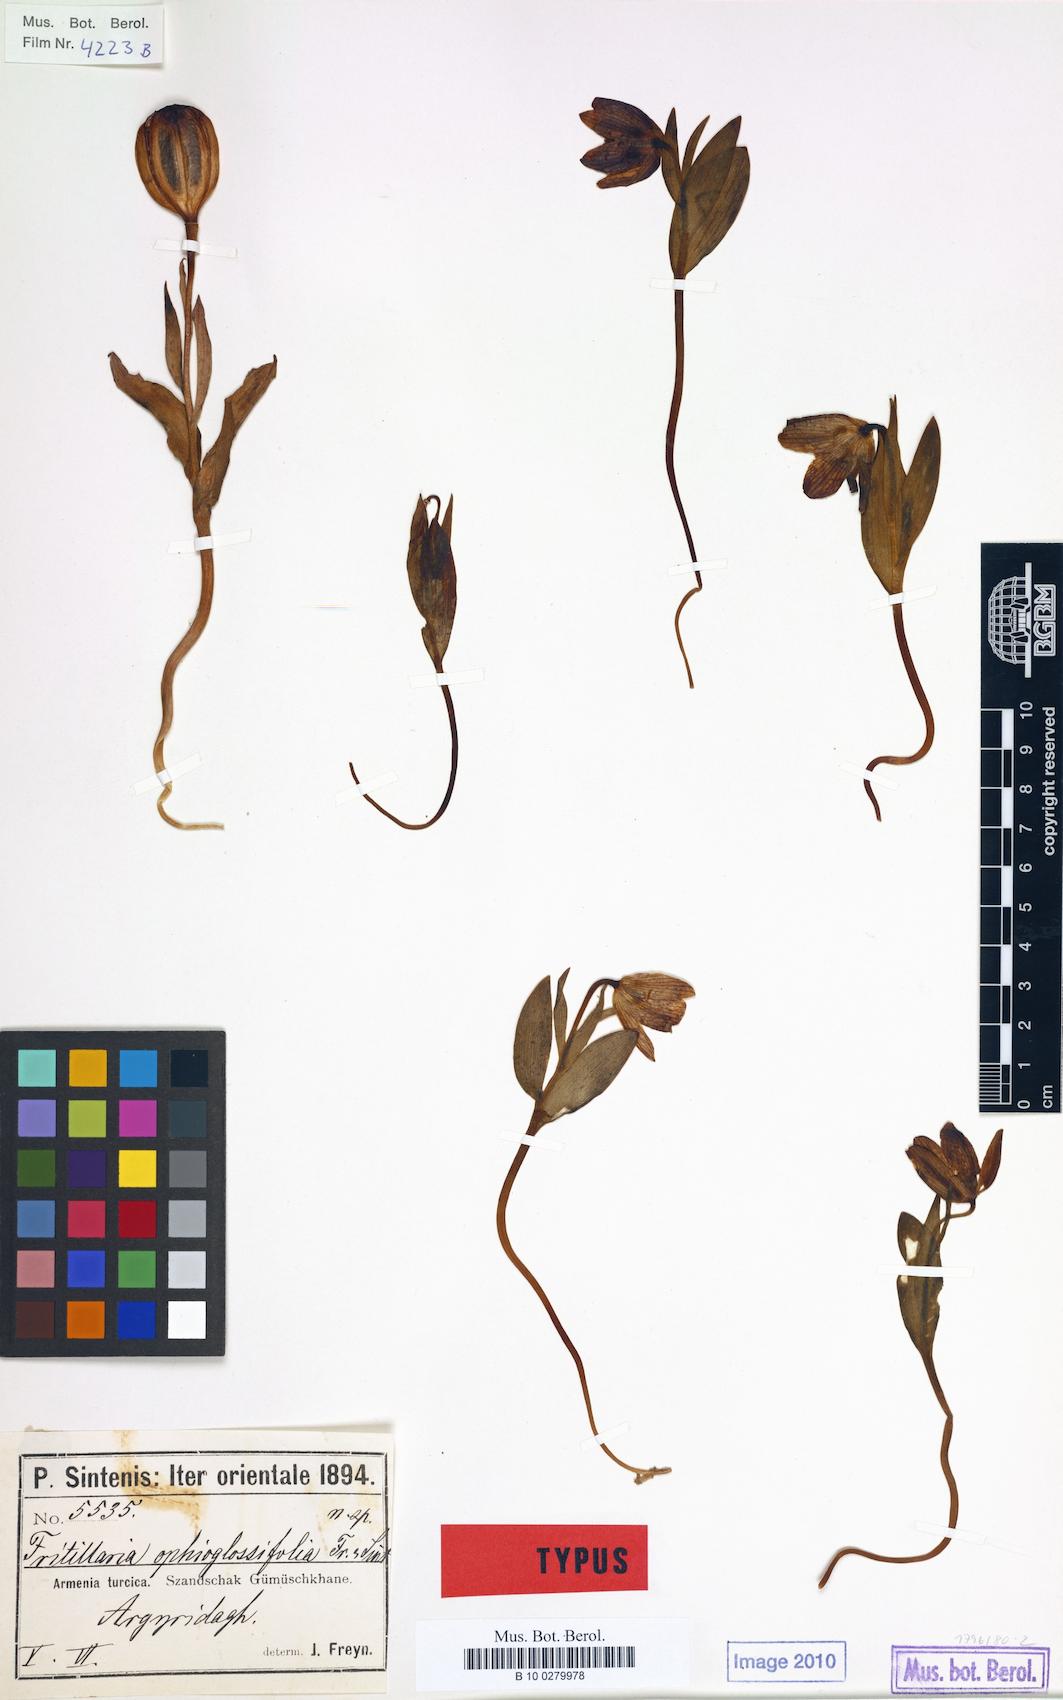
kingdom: Plantae
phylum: Tracheophyta
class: Liliopsida
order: Liliales
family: Liliaceae
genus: Fritillaria
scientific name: Fritillaria crassifolia
